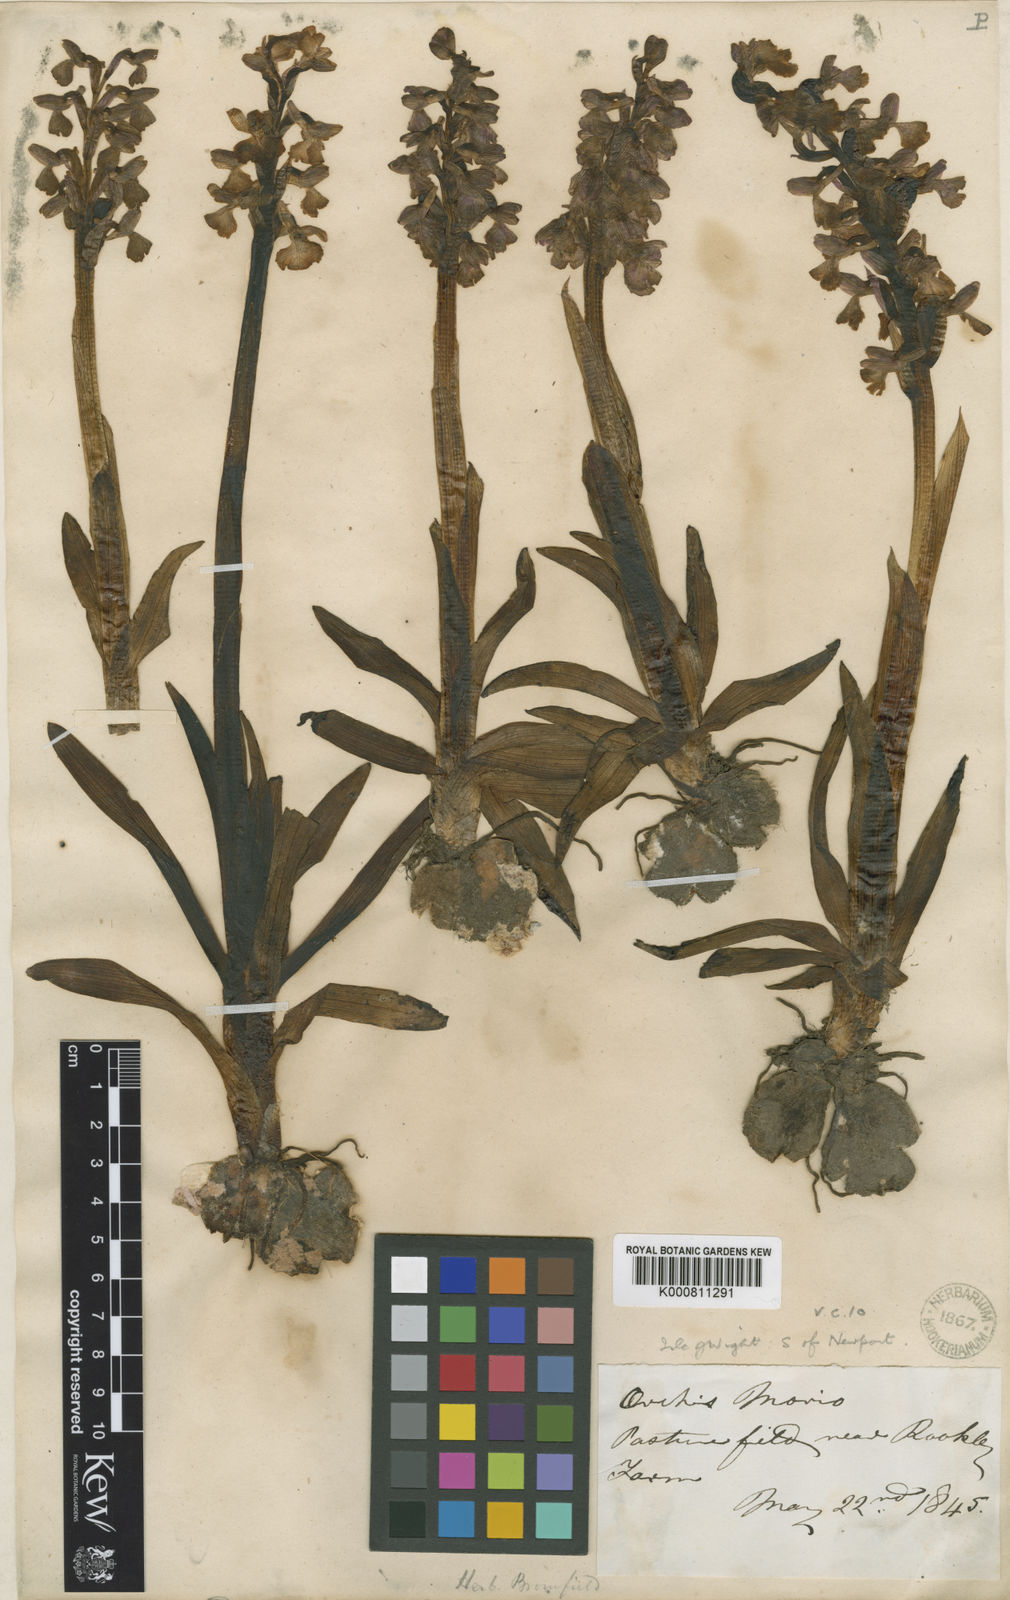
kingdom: Plantae
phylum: Tracheophyta
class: Liliopsida
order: Asparagales
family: Orchidaceae
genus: Anacamptis
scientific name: Anacamptis morio
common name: Green-winged orchid
